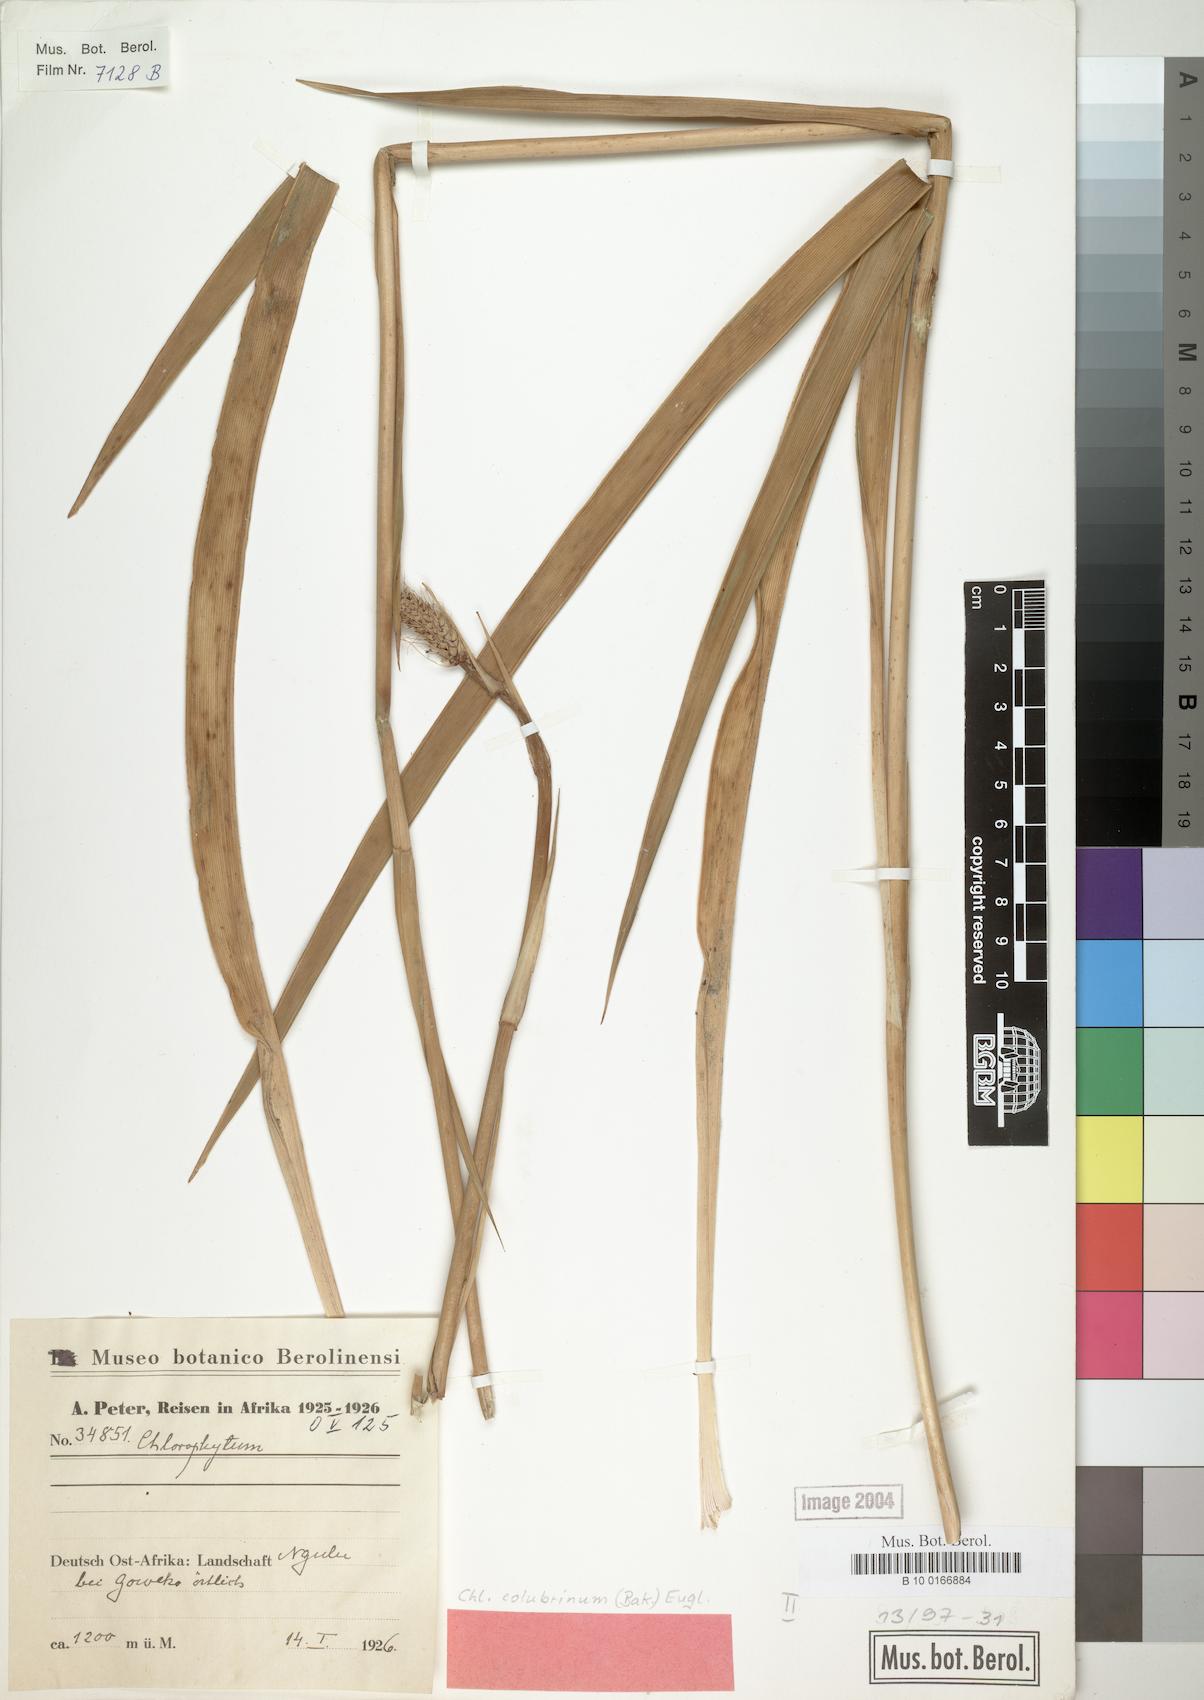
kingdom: Plantae
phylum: Tracheophyta
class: Liliopsida
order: Asparagales
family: Asparagaceae
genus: Chlorophytum
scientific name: Chlorophytum colubrinum
